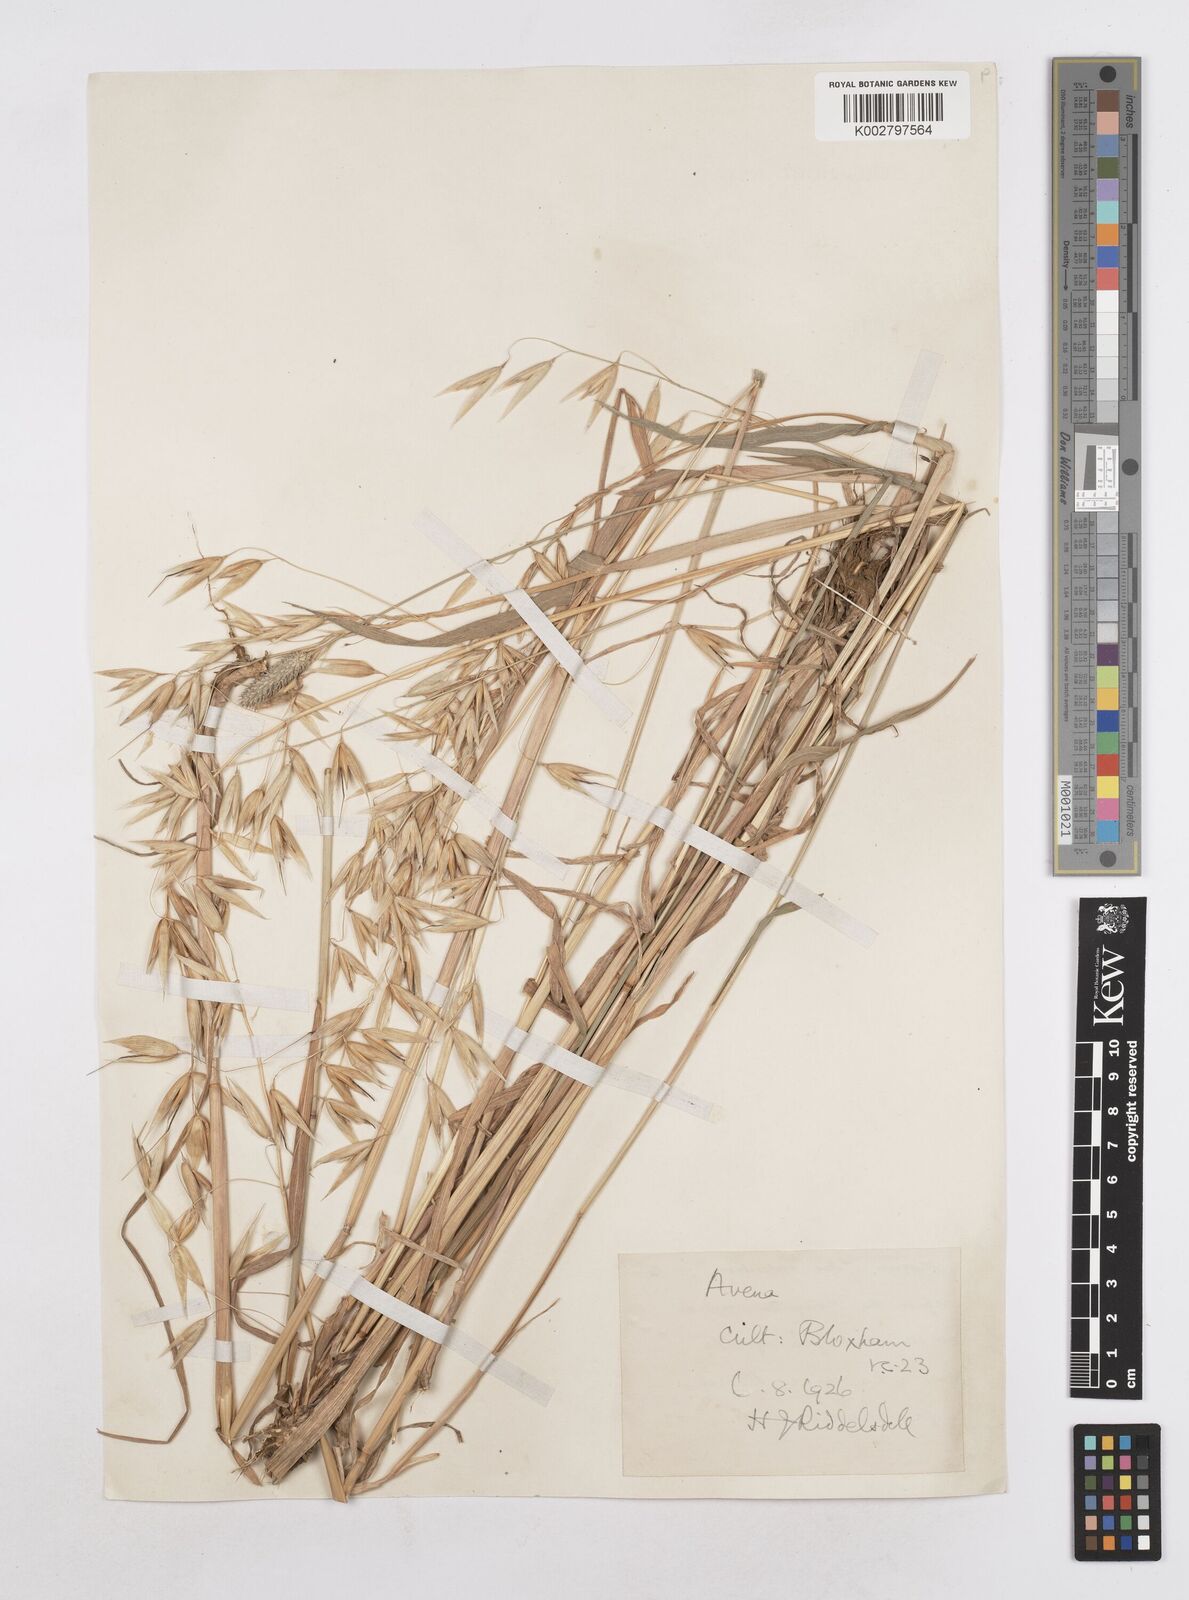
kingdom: Plantae
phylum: Tracheophyta
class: Liliopsida
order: Poales
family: Poaceae
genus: Avena
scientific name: Avena sativa
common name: Oat
